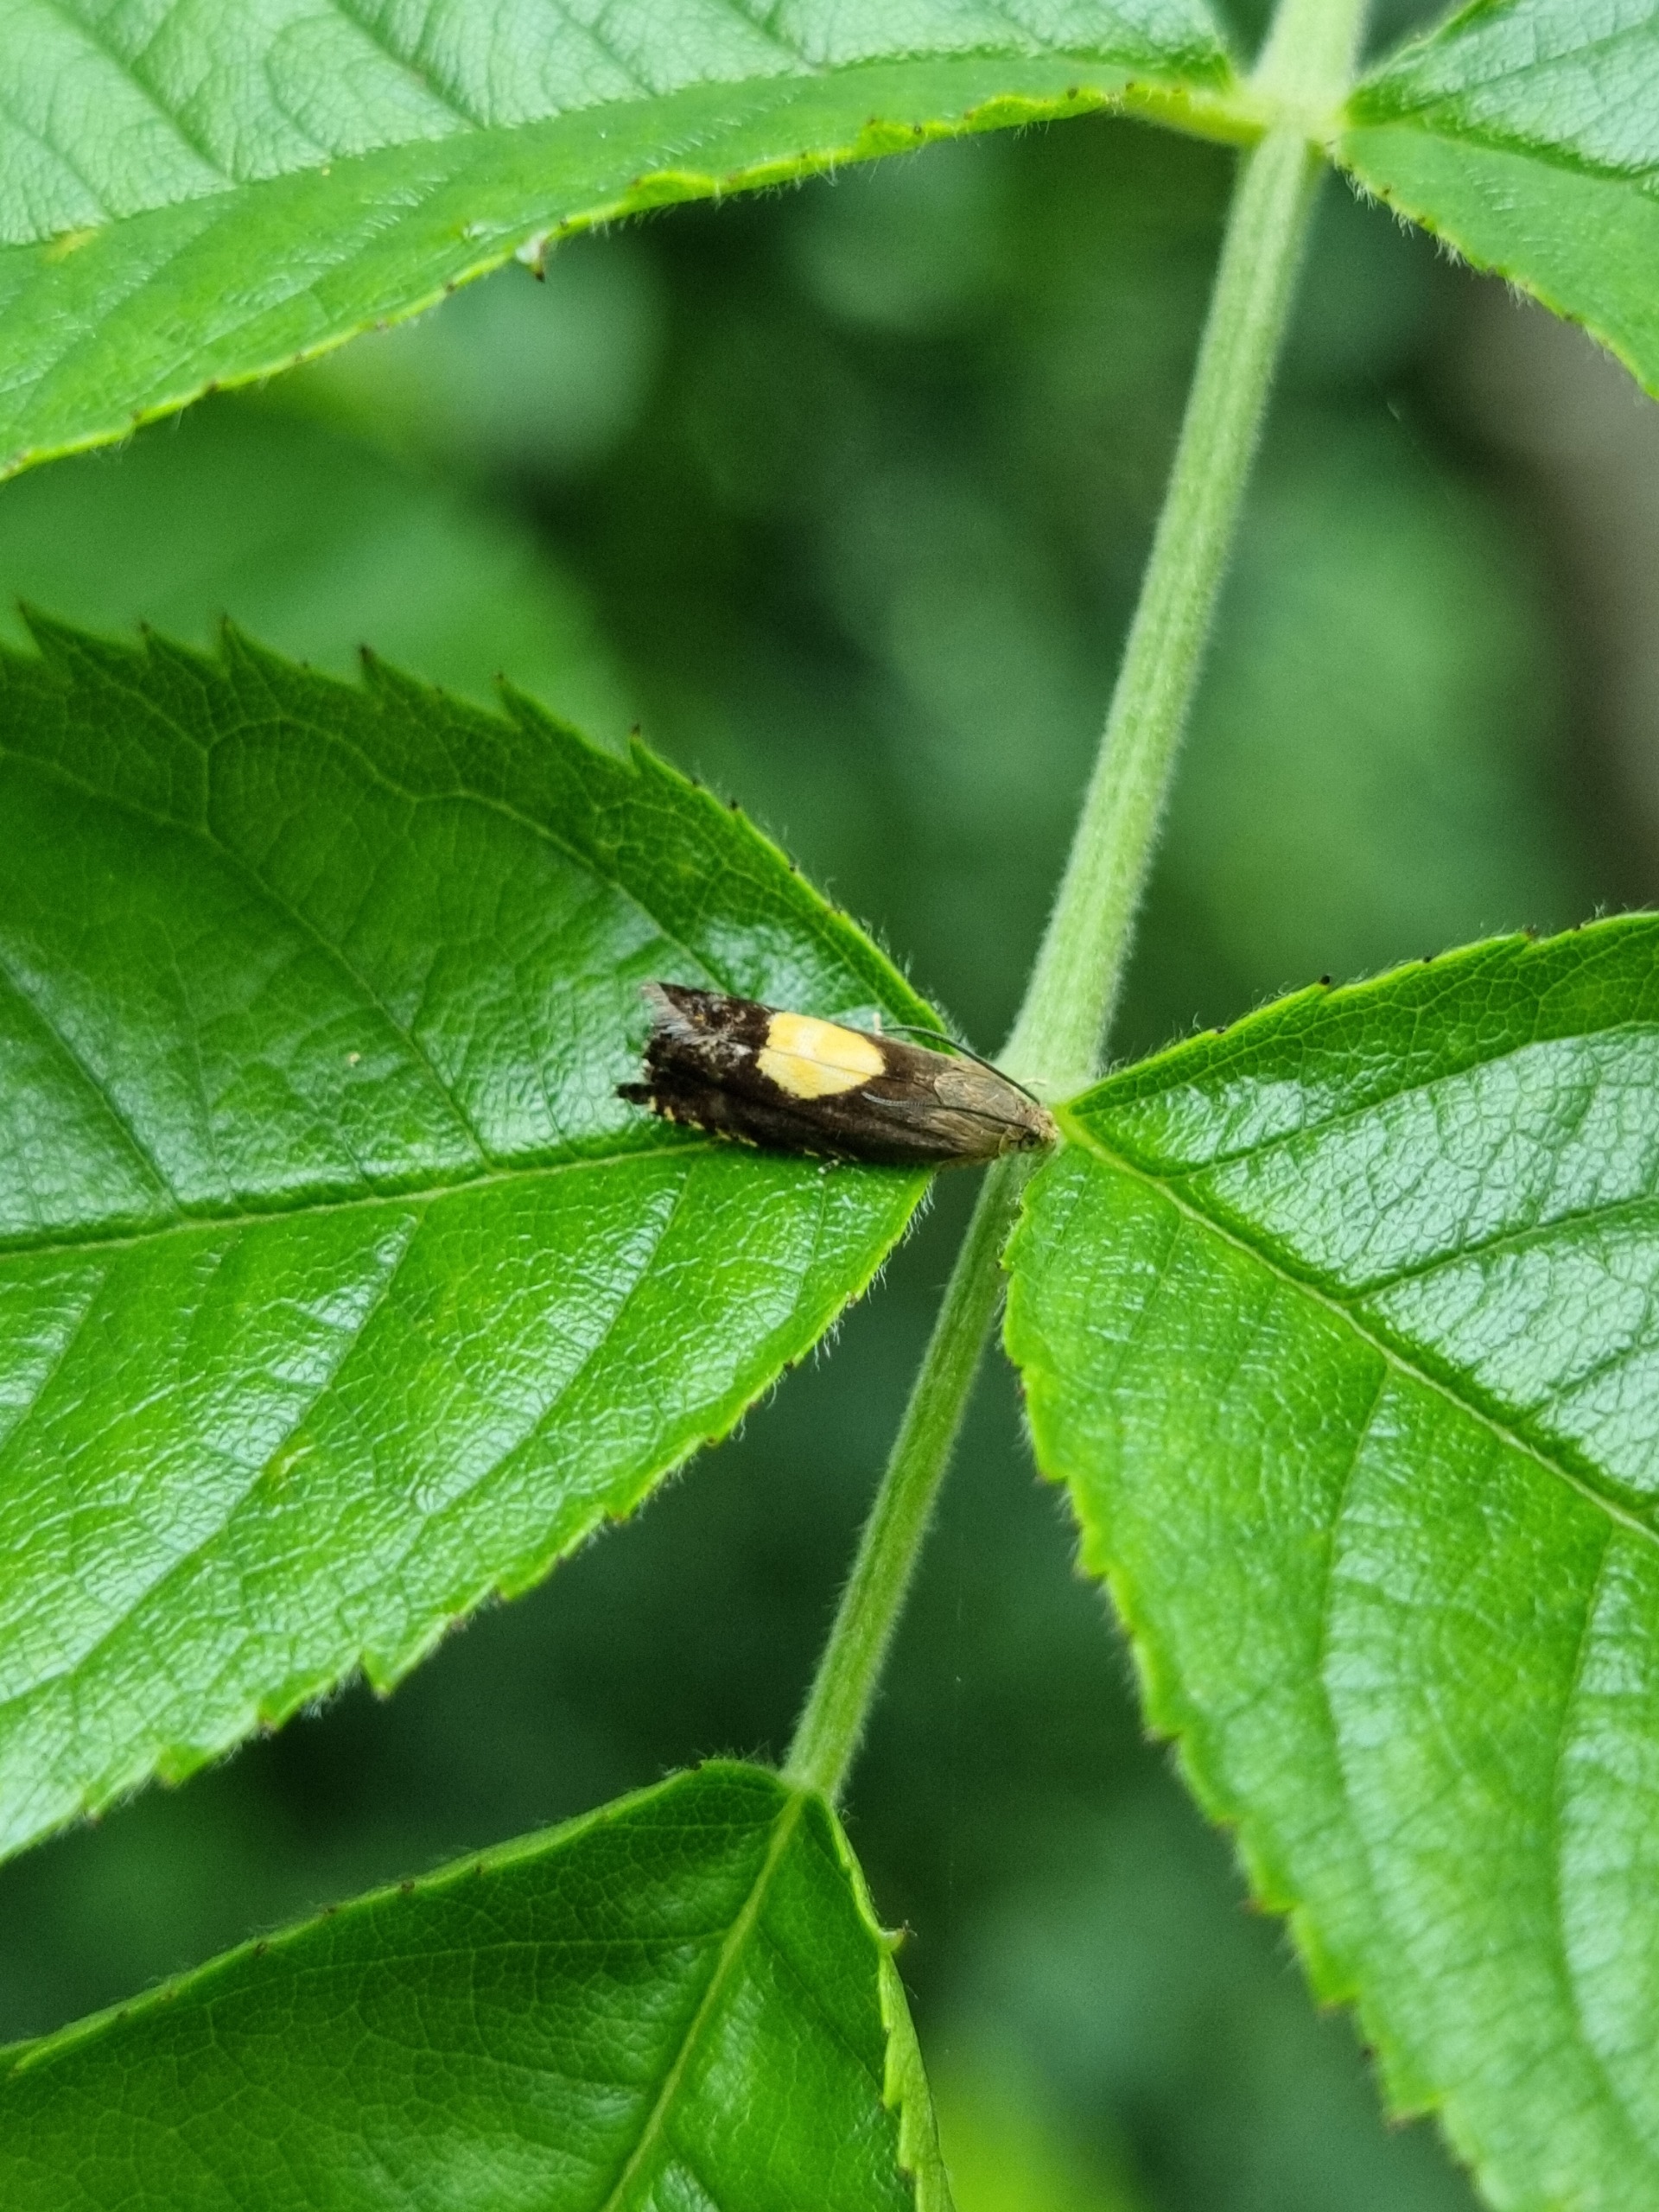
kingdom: Animalia
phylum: Arthropoda
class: Insecta
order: Lepidoptera
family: Tortricidae
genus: Pammene
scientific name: Pammene regiana
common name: Ahornsolvikler
